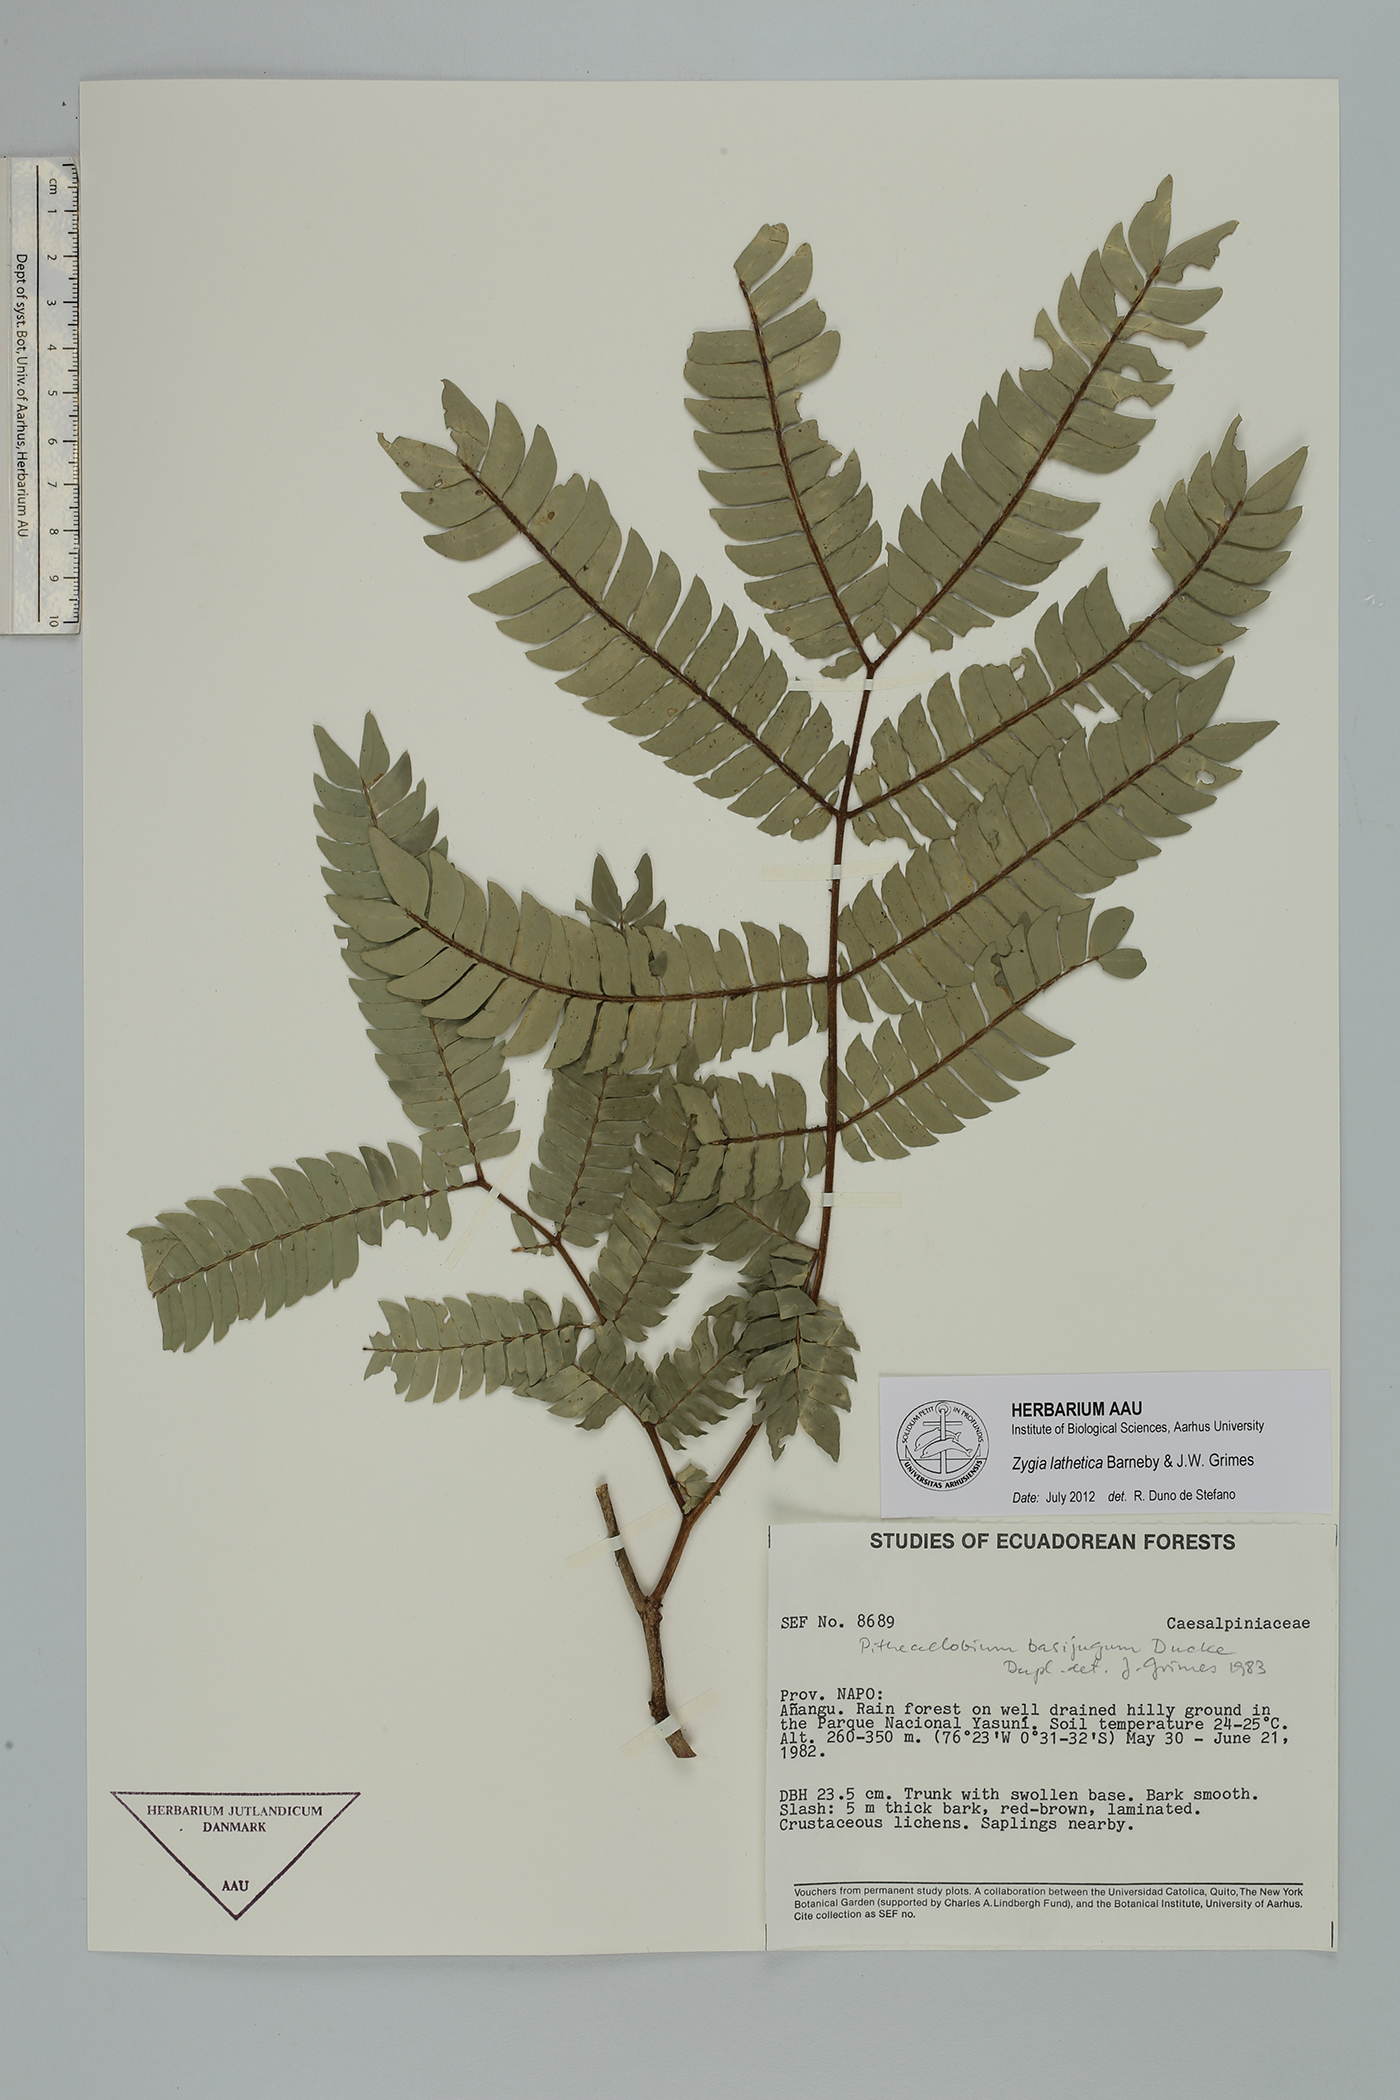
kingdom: Plantae
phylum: Tracheophyta
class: Magnoliopsida
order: Fabales
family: Fabaceae
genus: Zygia
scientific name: Zygia lathetica
